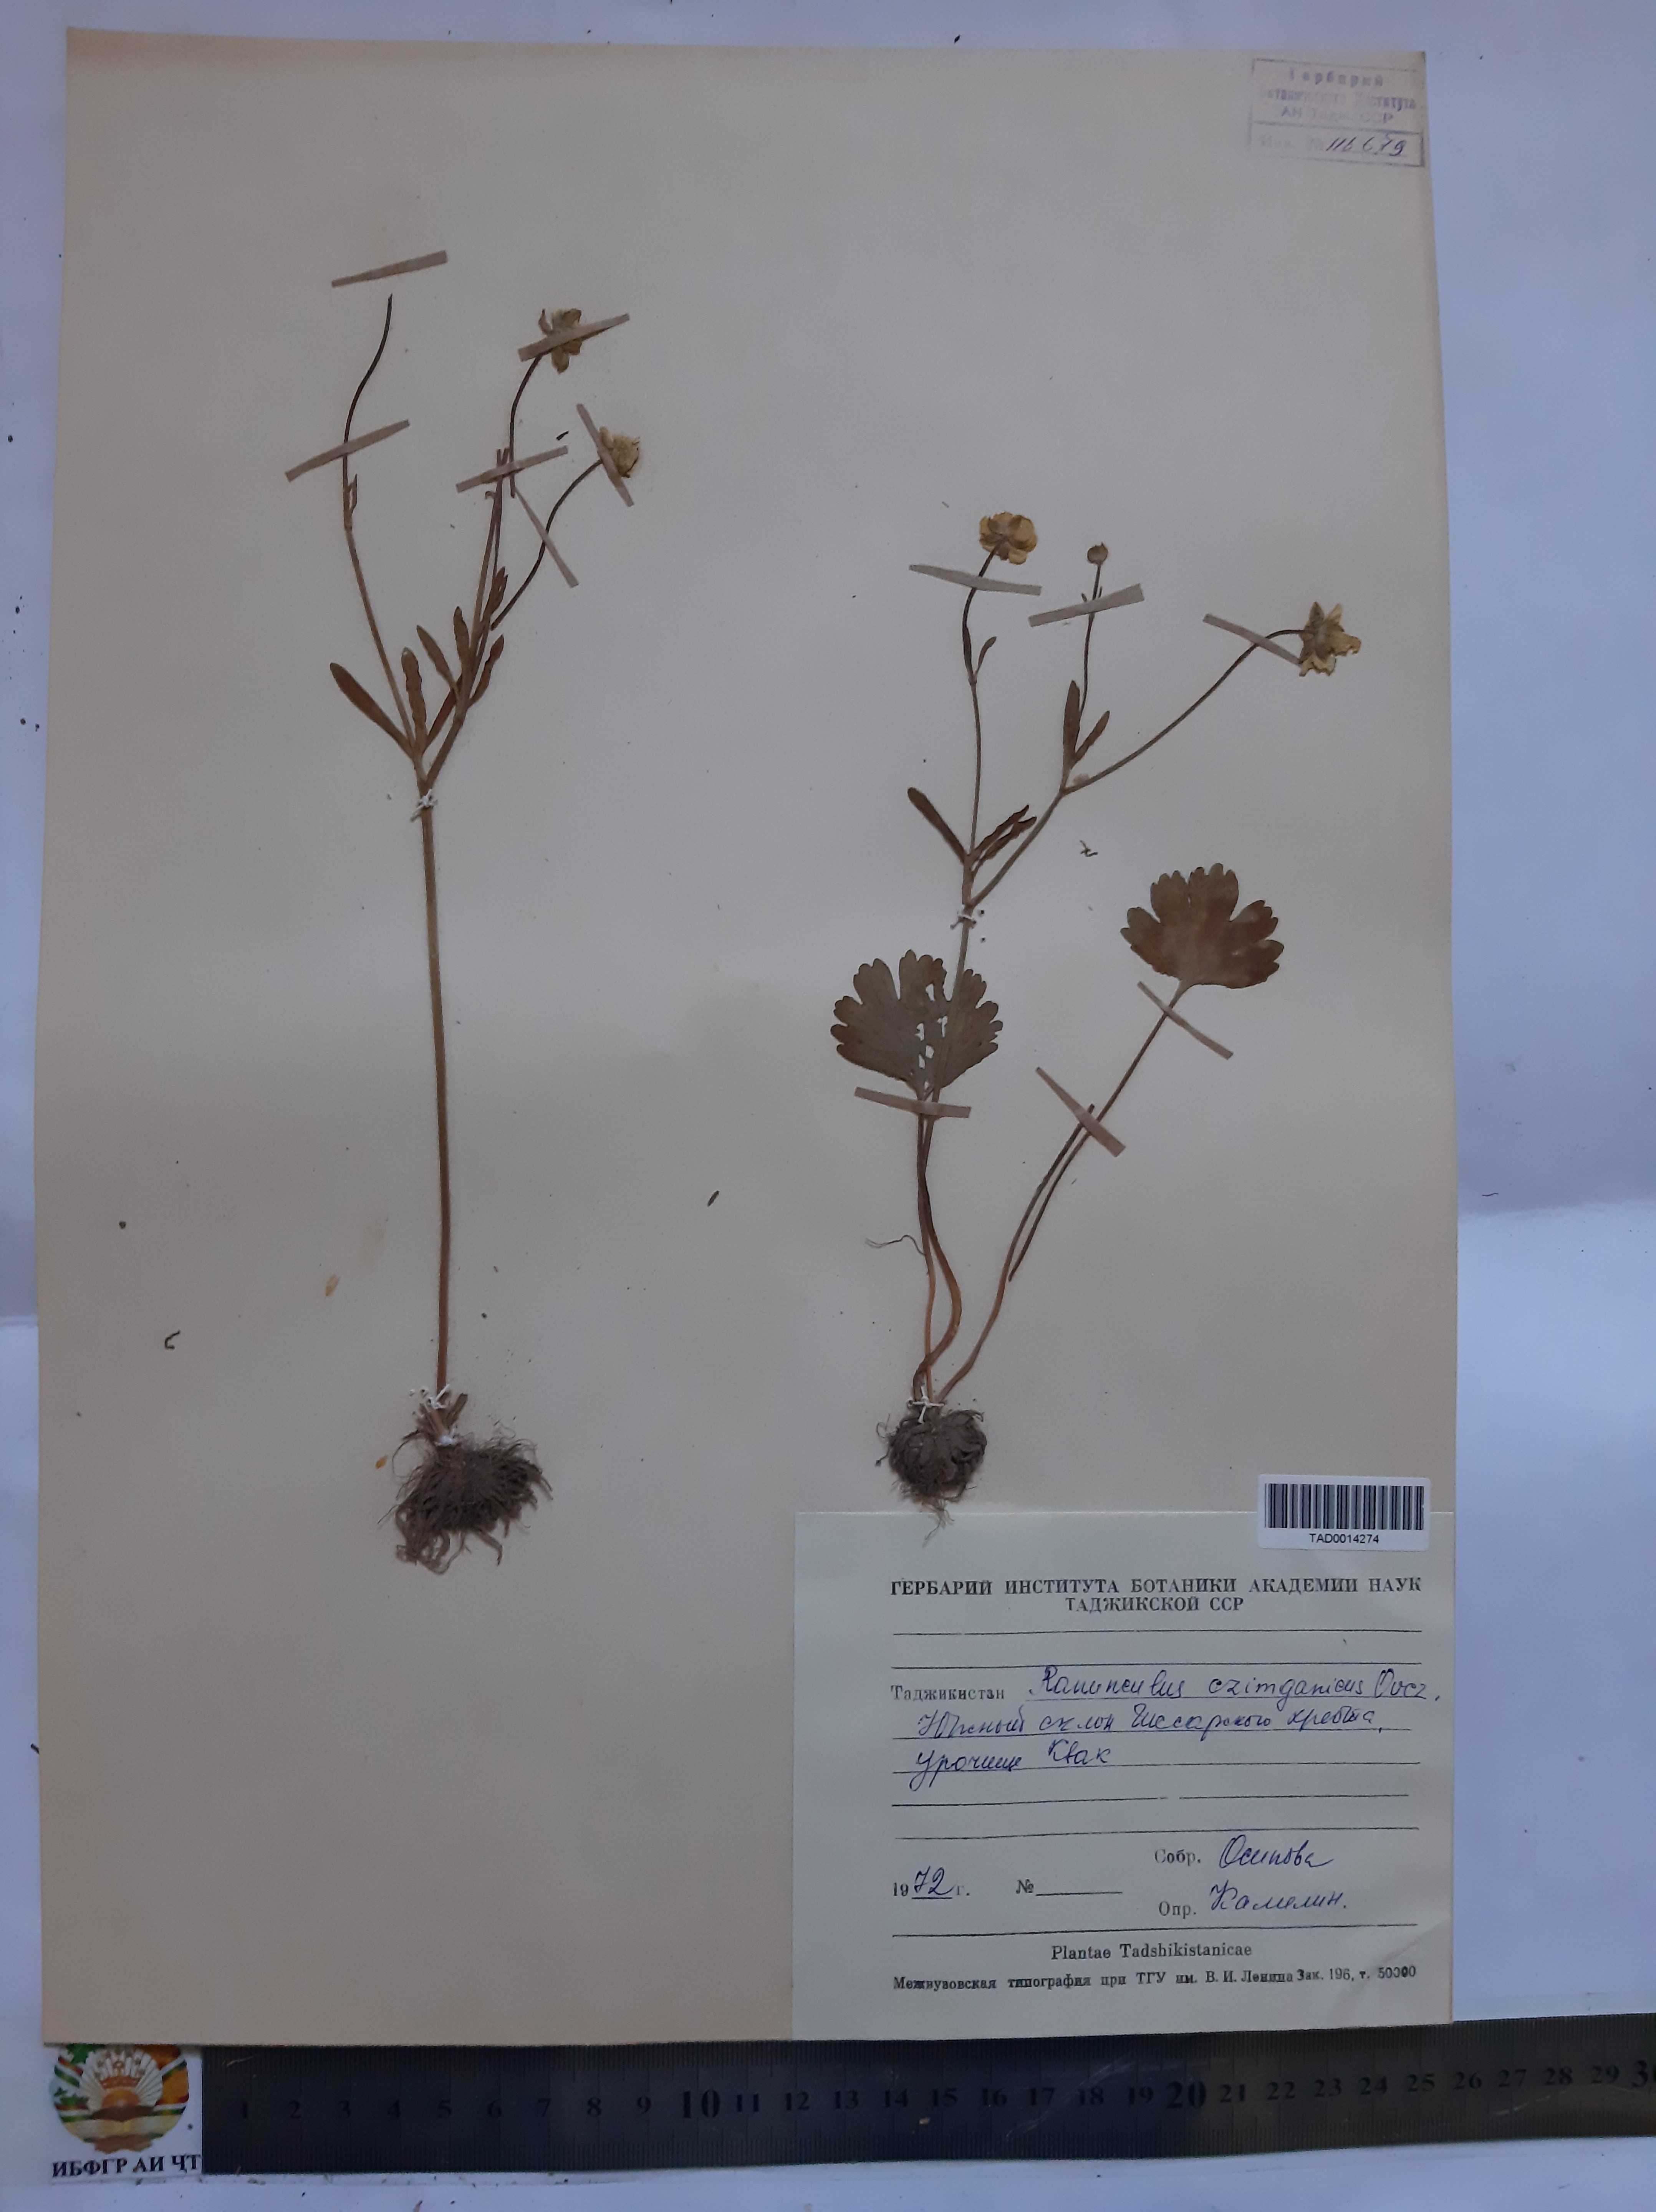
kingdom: Plantae
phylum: Tracheophyta
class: Magnoliopsida
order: Ranunculales
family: Ranunculaceae
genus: Ranunculus
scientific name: Ranunculus czimganicus
